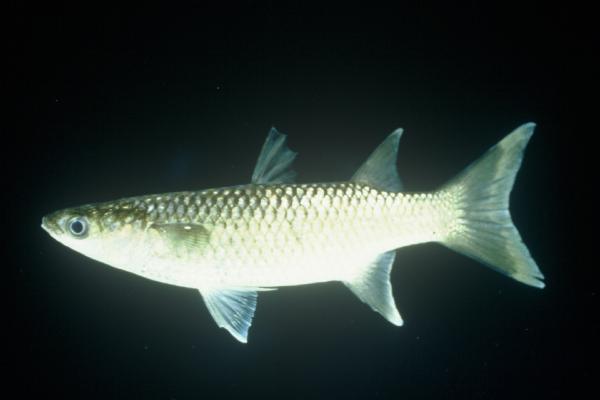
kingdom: Animalia
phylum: Chordata
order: Mugiliformes
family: Mugilidae
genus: Planiliza
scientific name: Planiliza alata
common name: Diamond mullet
